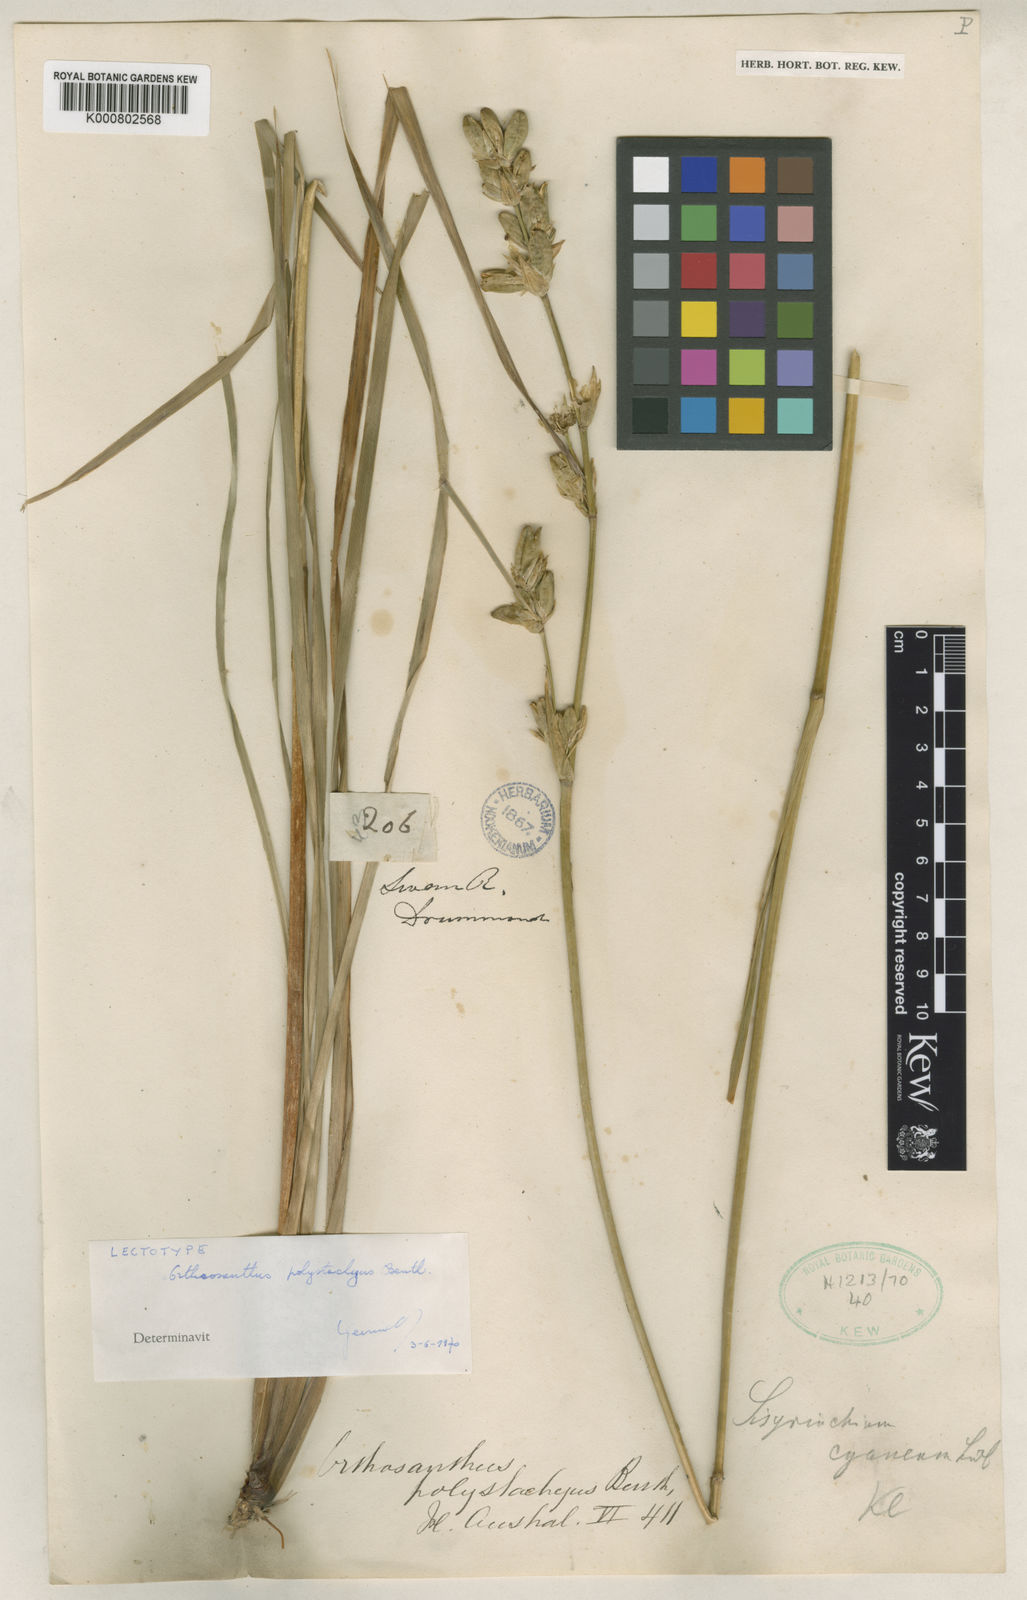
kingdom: Plantae
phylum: Tracheophyta
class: Liliopsida
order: Asparagales
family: Iridaceae
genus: Orthrosanthus
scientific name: Orthrosanthus polystachyus
